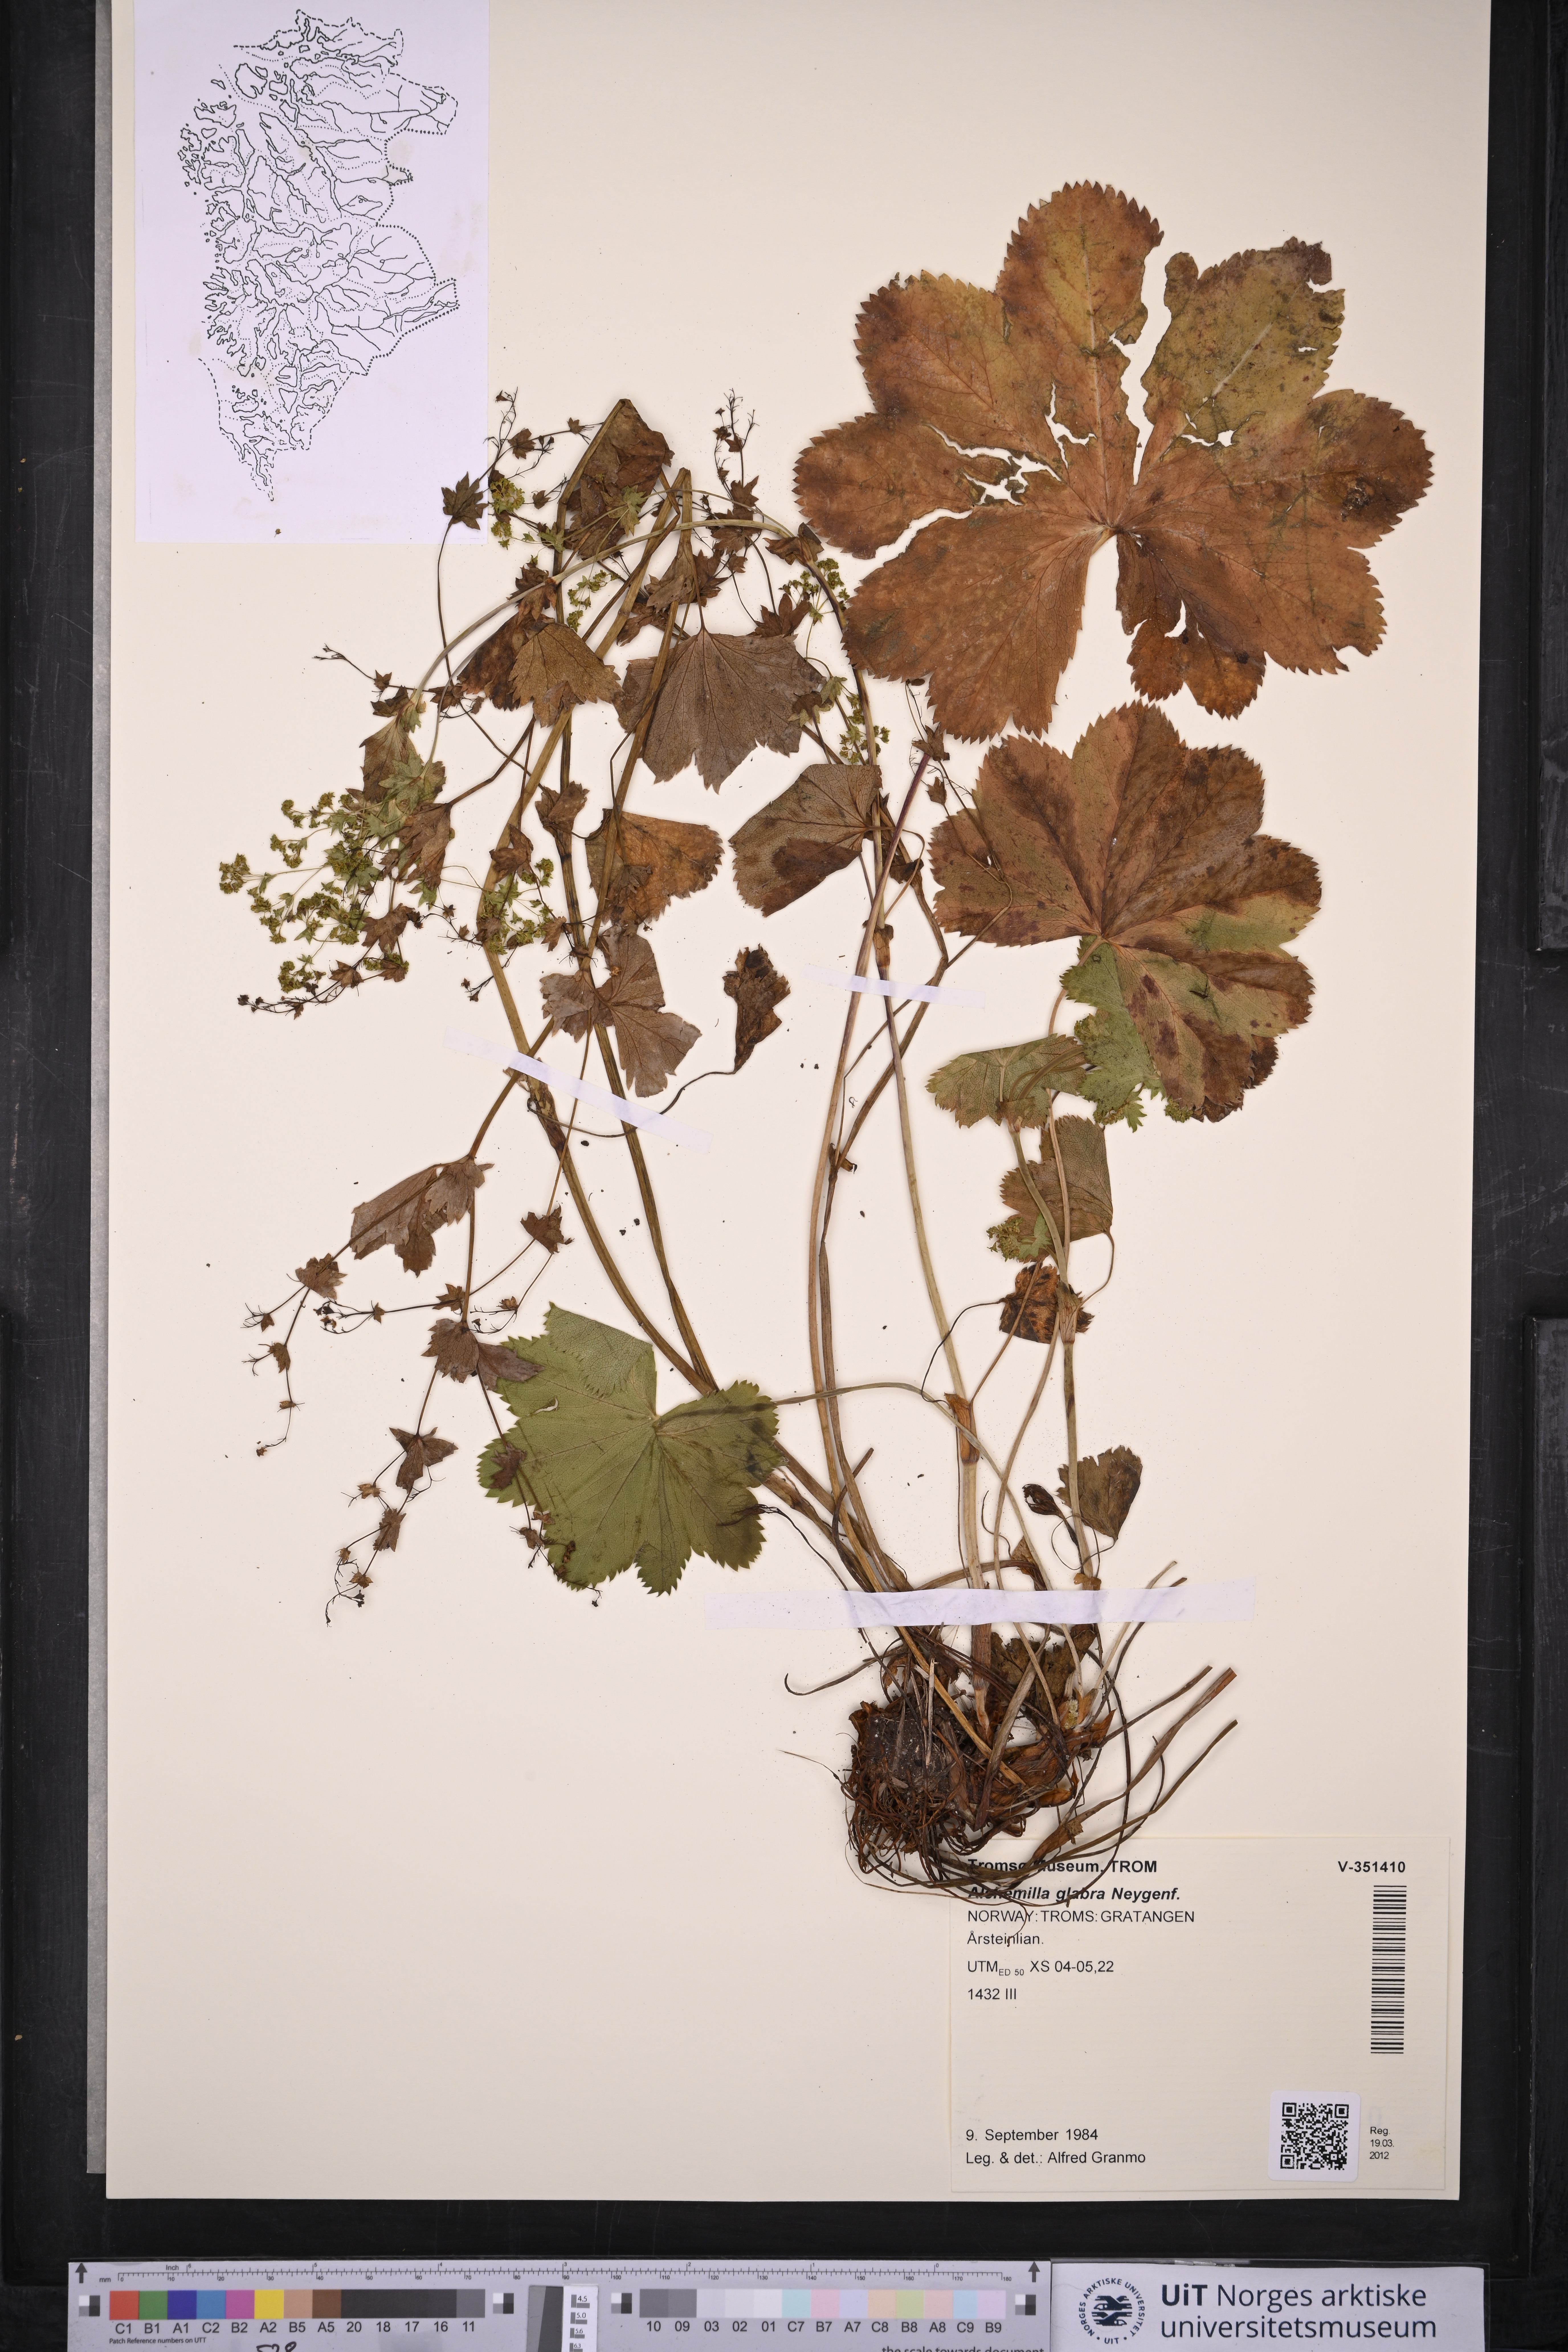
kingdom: Plantae
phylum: Tracheophyta
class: Magnoliopsida
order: Rosales
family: Rosaceae
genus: Alchemilla
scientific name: Alchemilla glabra
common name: Smooth lady's-mantle
